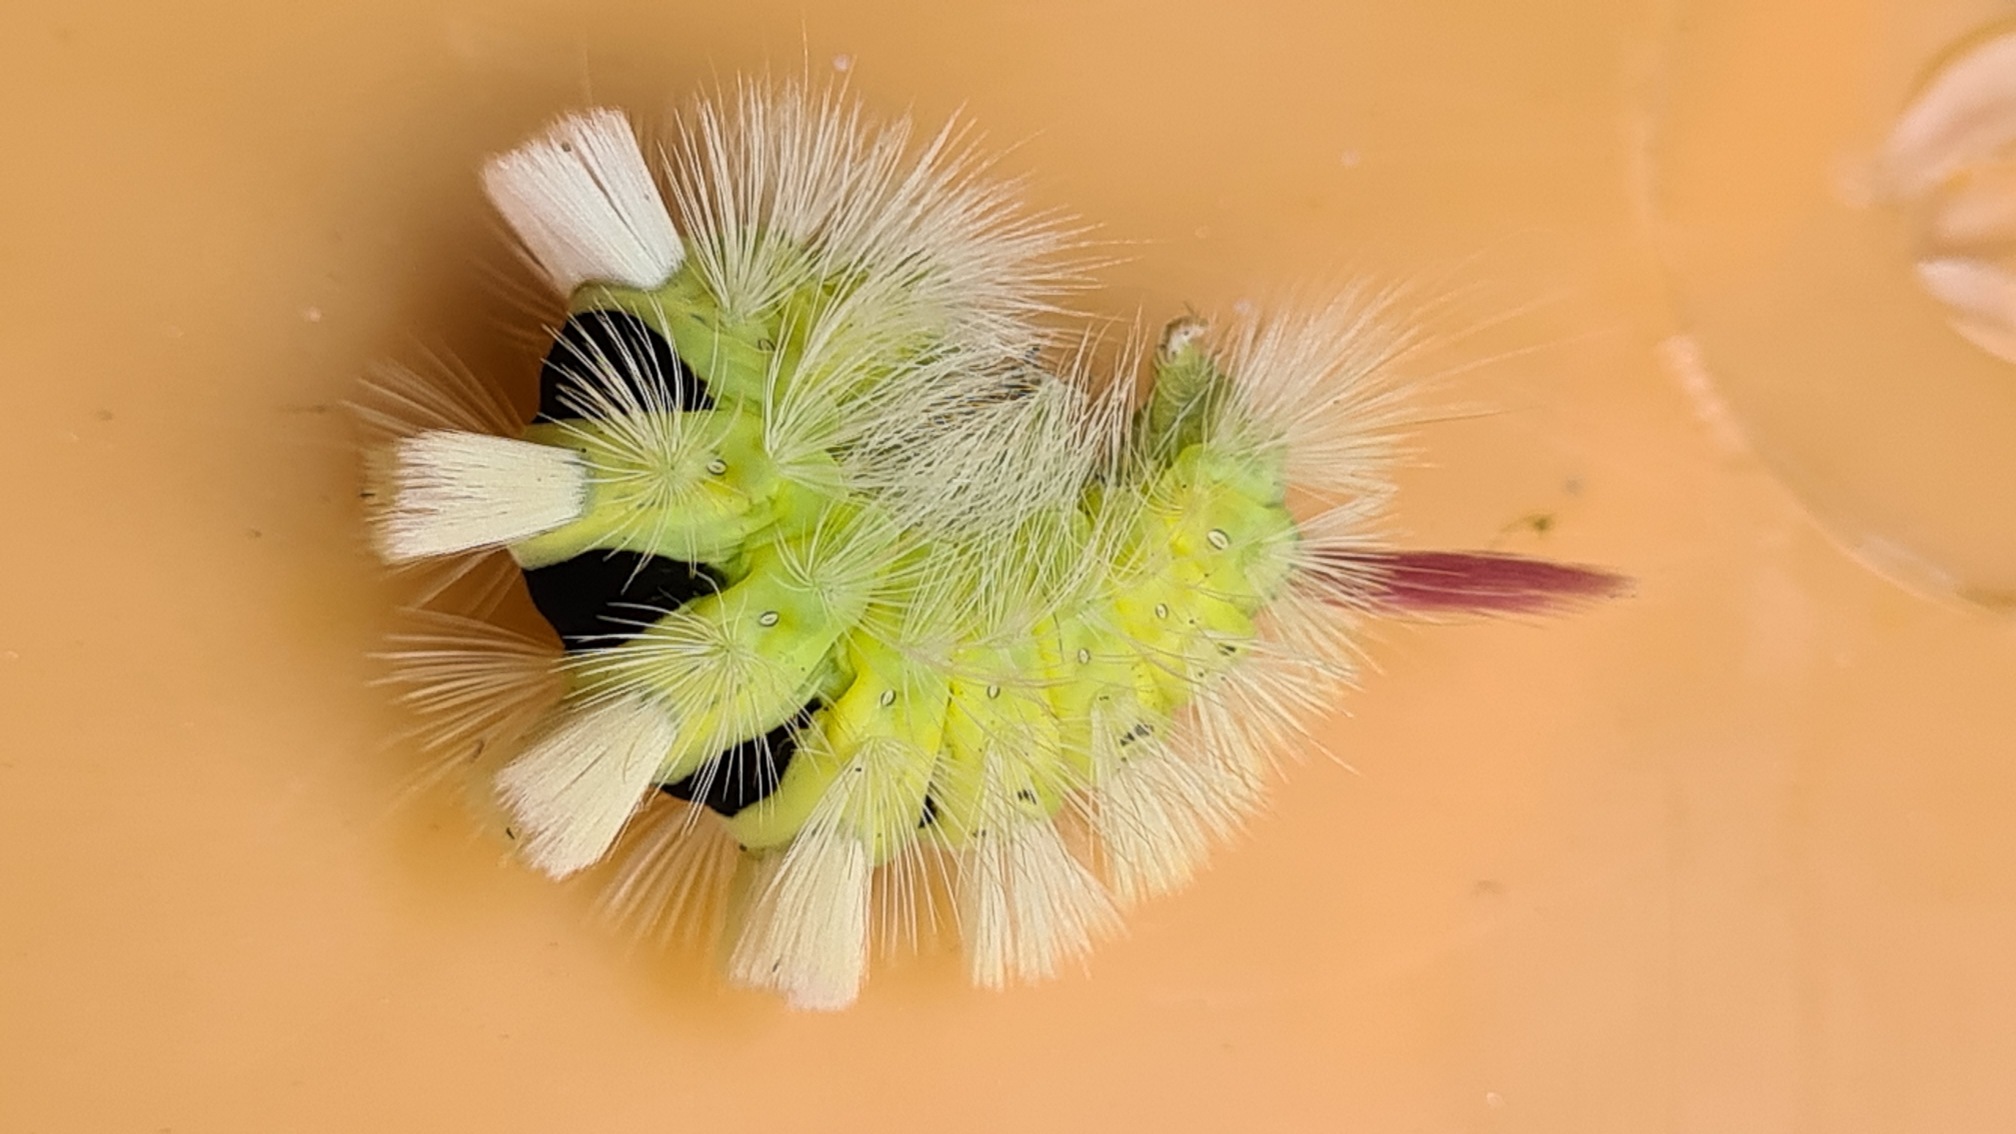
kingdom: Animalia
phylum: Arthropoda
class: Insecta
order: Lepidoptera
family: Erebidae
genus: Calliteara
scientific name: Calliteara pudibunda
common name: Bøgenonne
